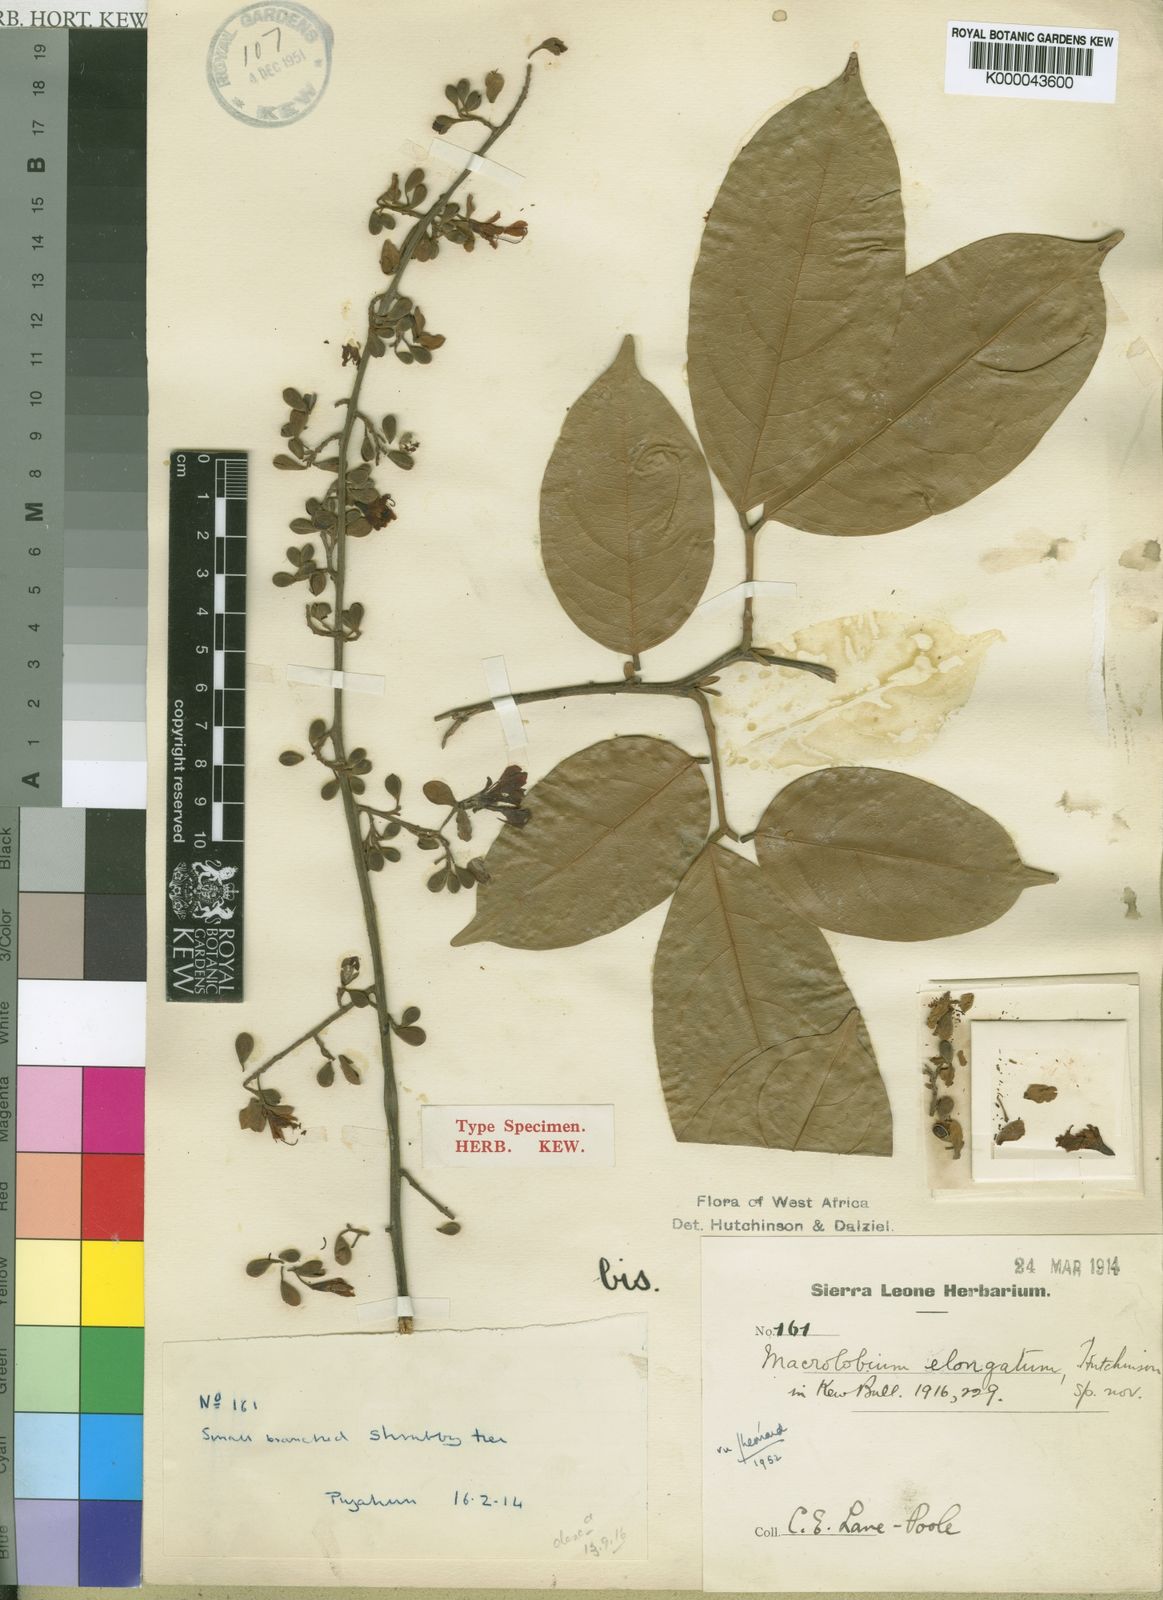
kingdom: Plantae
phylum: Tracheophyta
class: Magnoliopsida
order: Fabales
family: Fabaceae
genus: Englerodendron
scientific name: Englerodendron obanense
